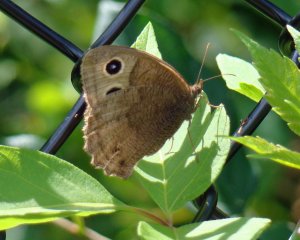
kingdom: Animalia
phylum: Arthropoda
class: Insecta
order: Lepidoptera
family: Nymphalidae
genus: Cercyonis
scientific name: Cercyonis pegala
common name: Common Wood-Nymph
